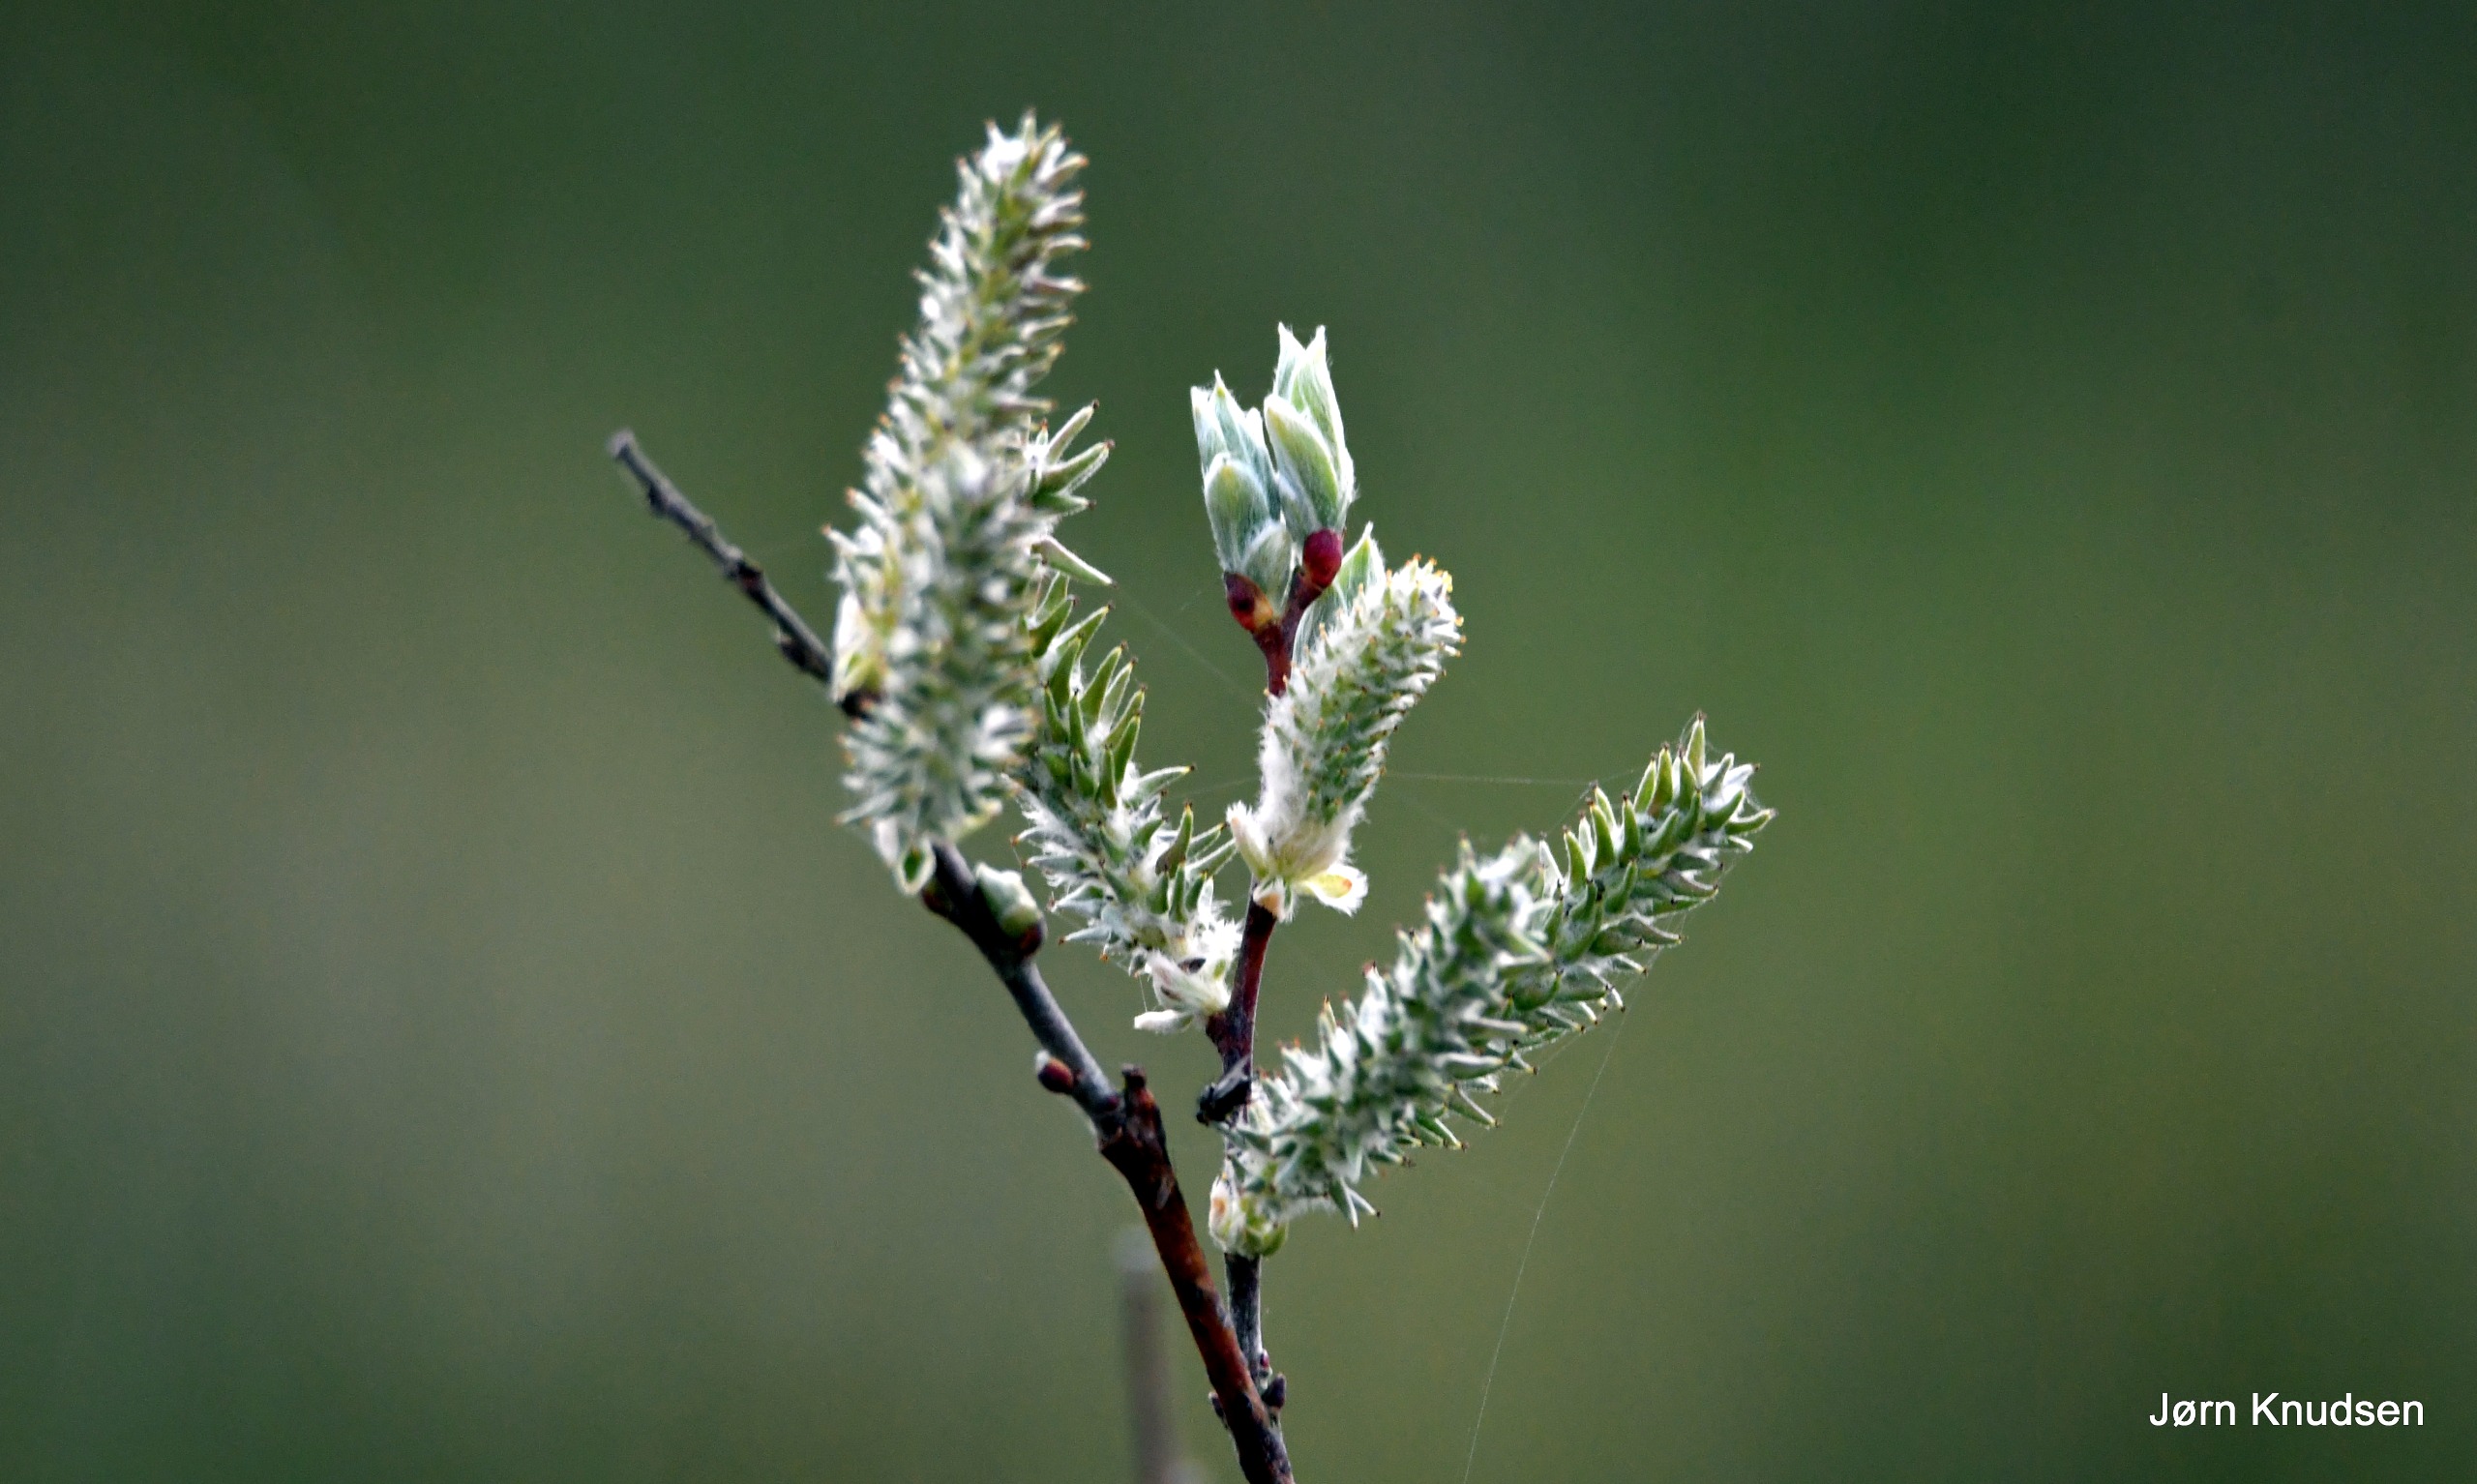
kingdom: Plantae
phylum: Tracheophyta
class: Magnoliopsida
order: Malpighiales
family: Salicaceae
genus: Salix
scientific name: Salix
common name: Pileslægten
